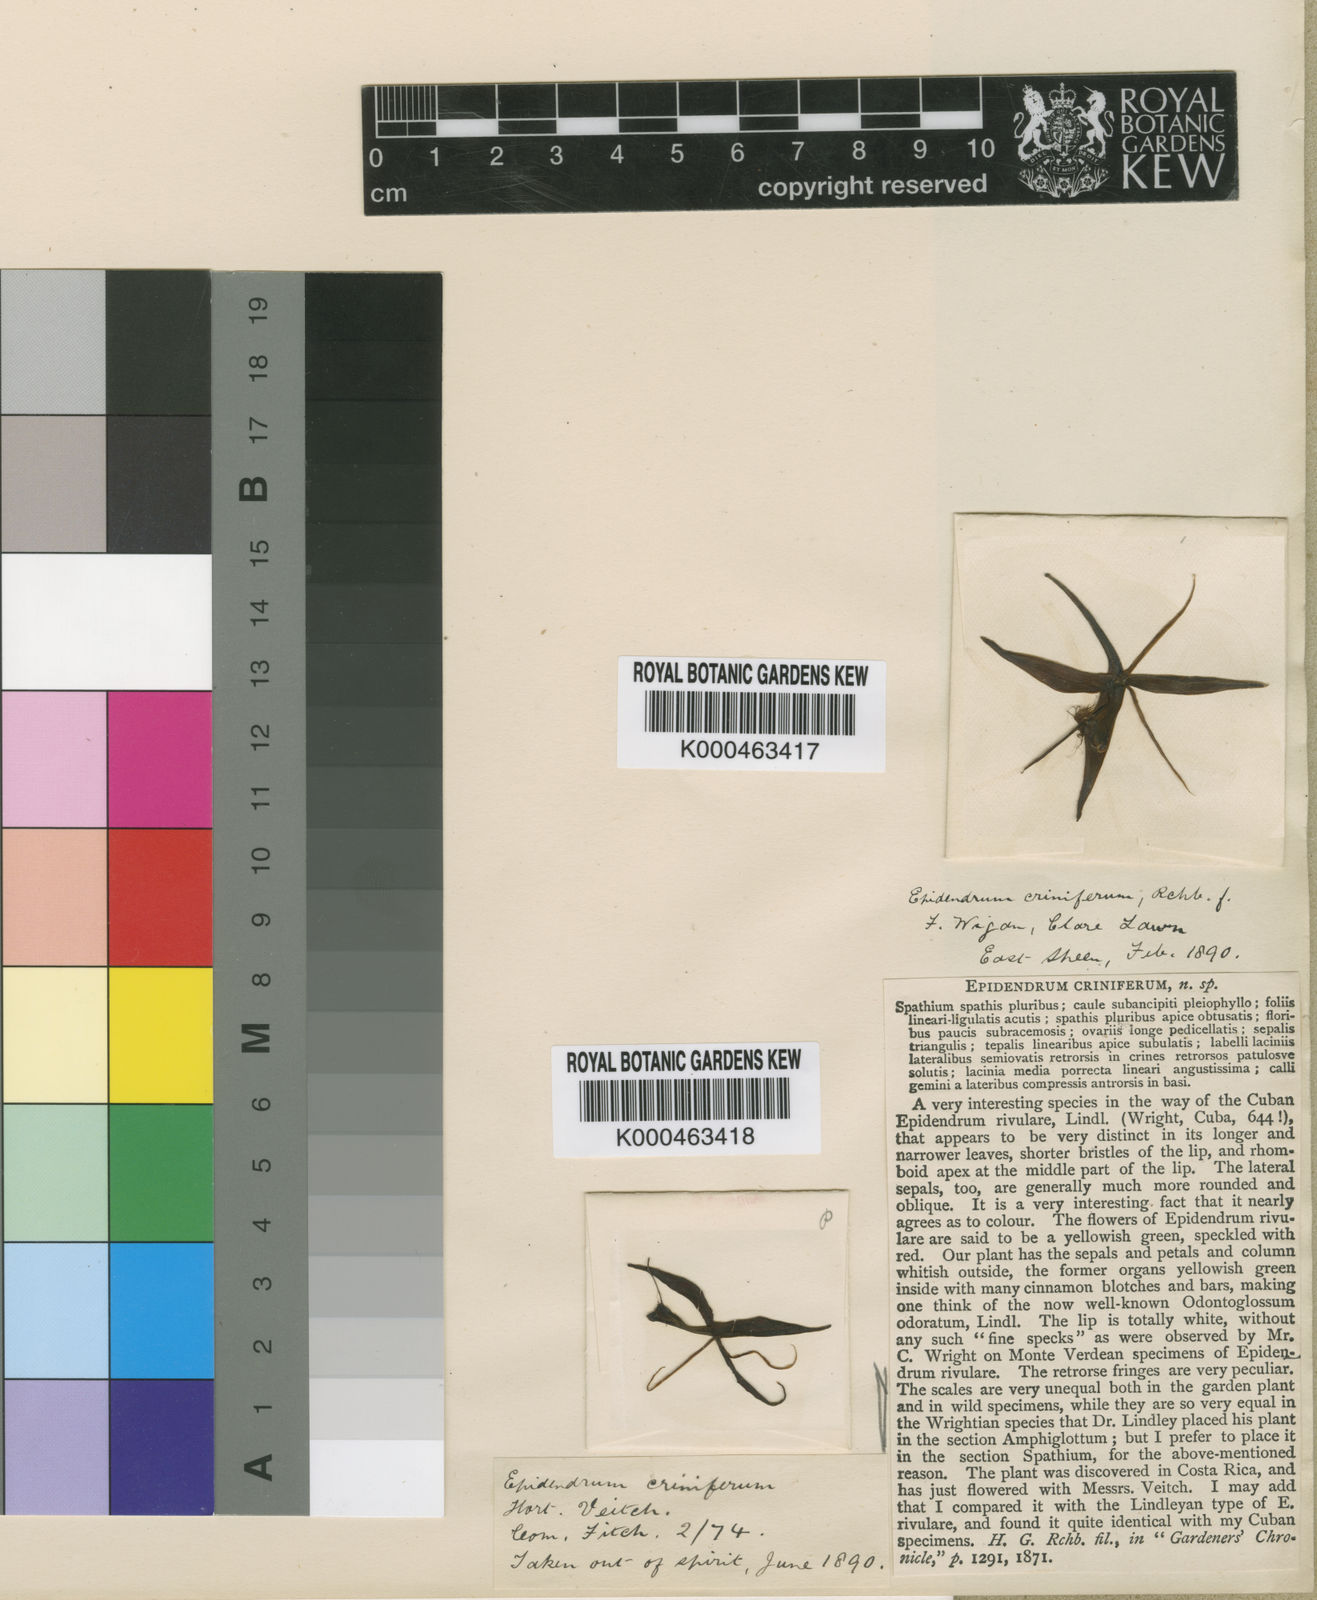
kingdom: Plantae
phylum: Tracheophyta
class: Liliopsida
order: Asparagales
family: Orchidaceae
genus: Epidendrum
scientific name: Epidendrum criniferum
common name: Bract carrying epidendrum
